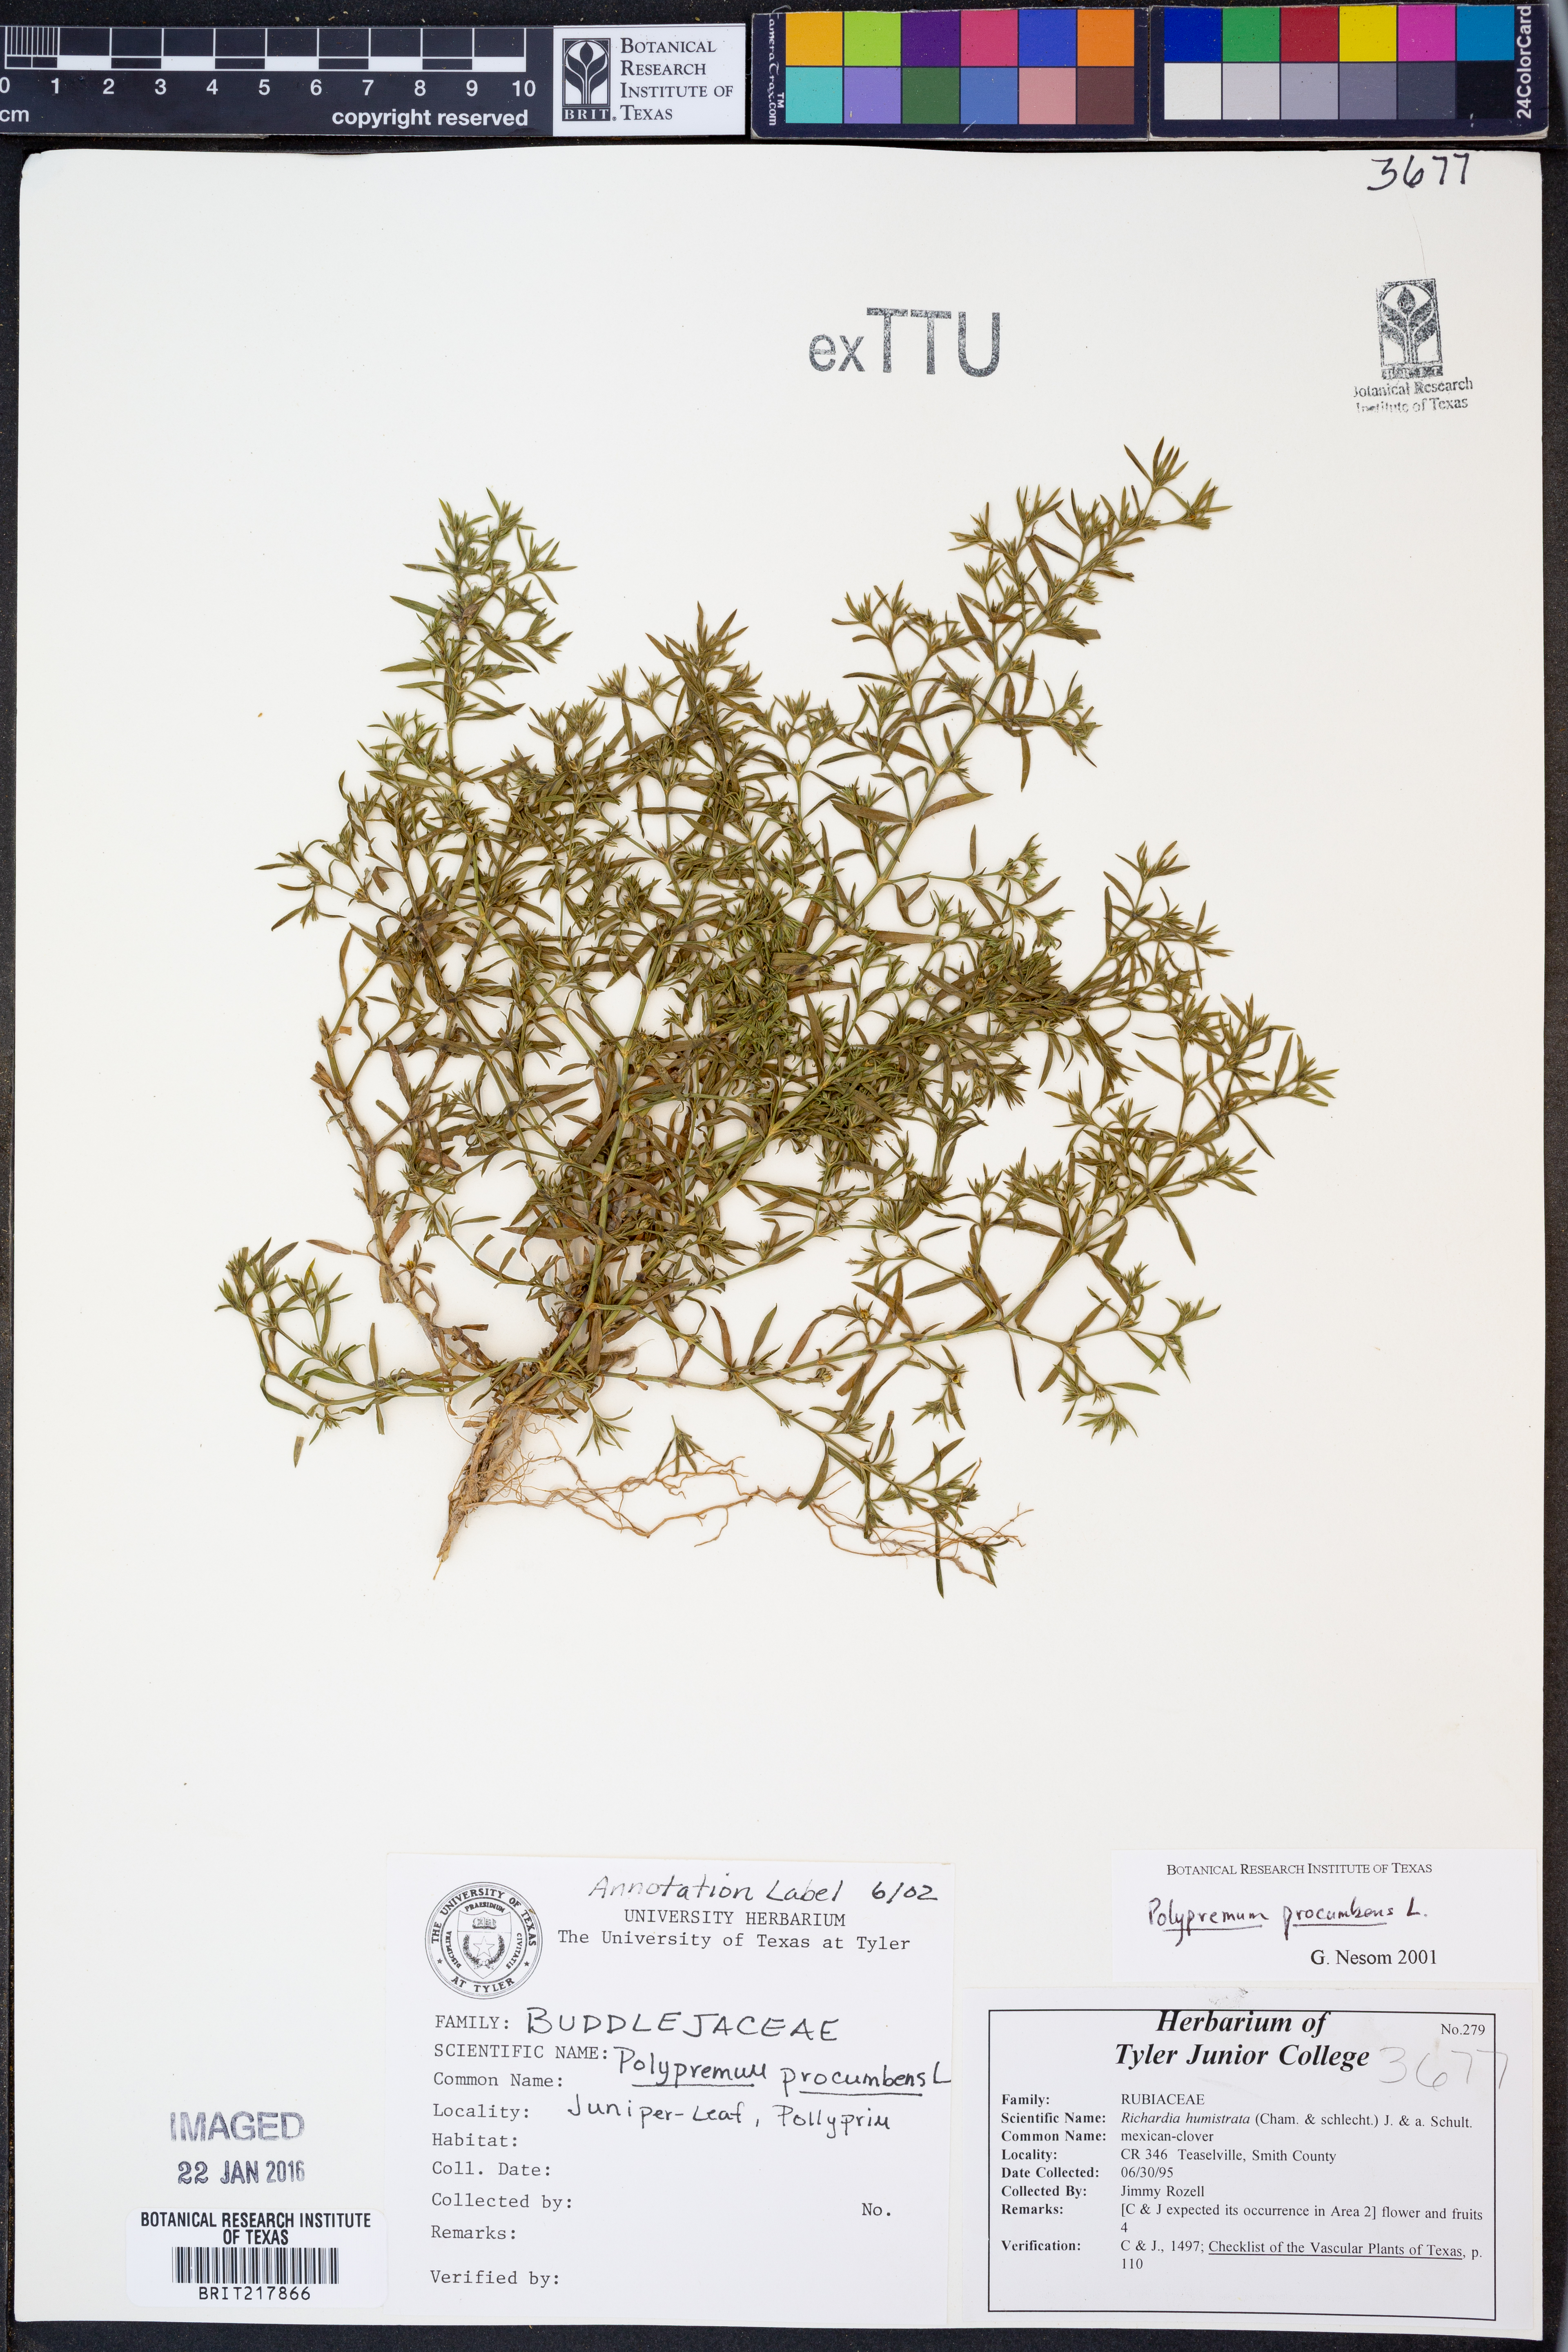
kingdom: Plantae
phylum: Tracheophyta
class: Magnoliopsida
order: Lamiales
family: Tetrachondraceae
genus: Polypremum
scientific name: Polypremum procumbens
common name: Juniper-leaf
